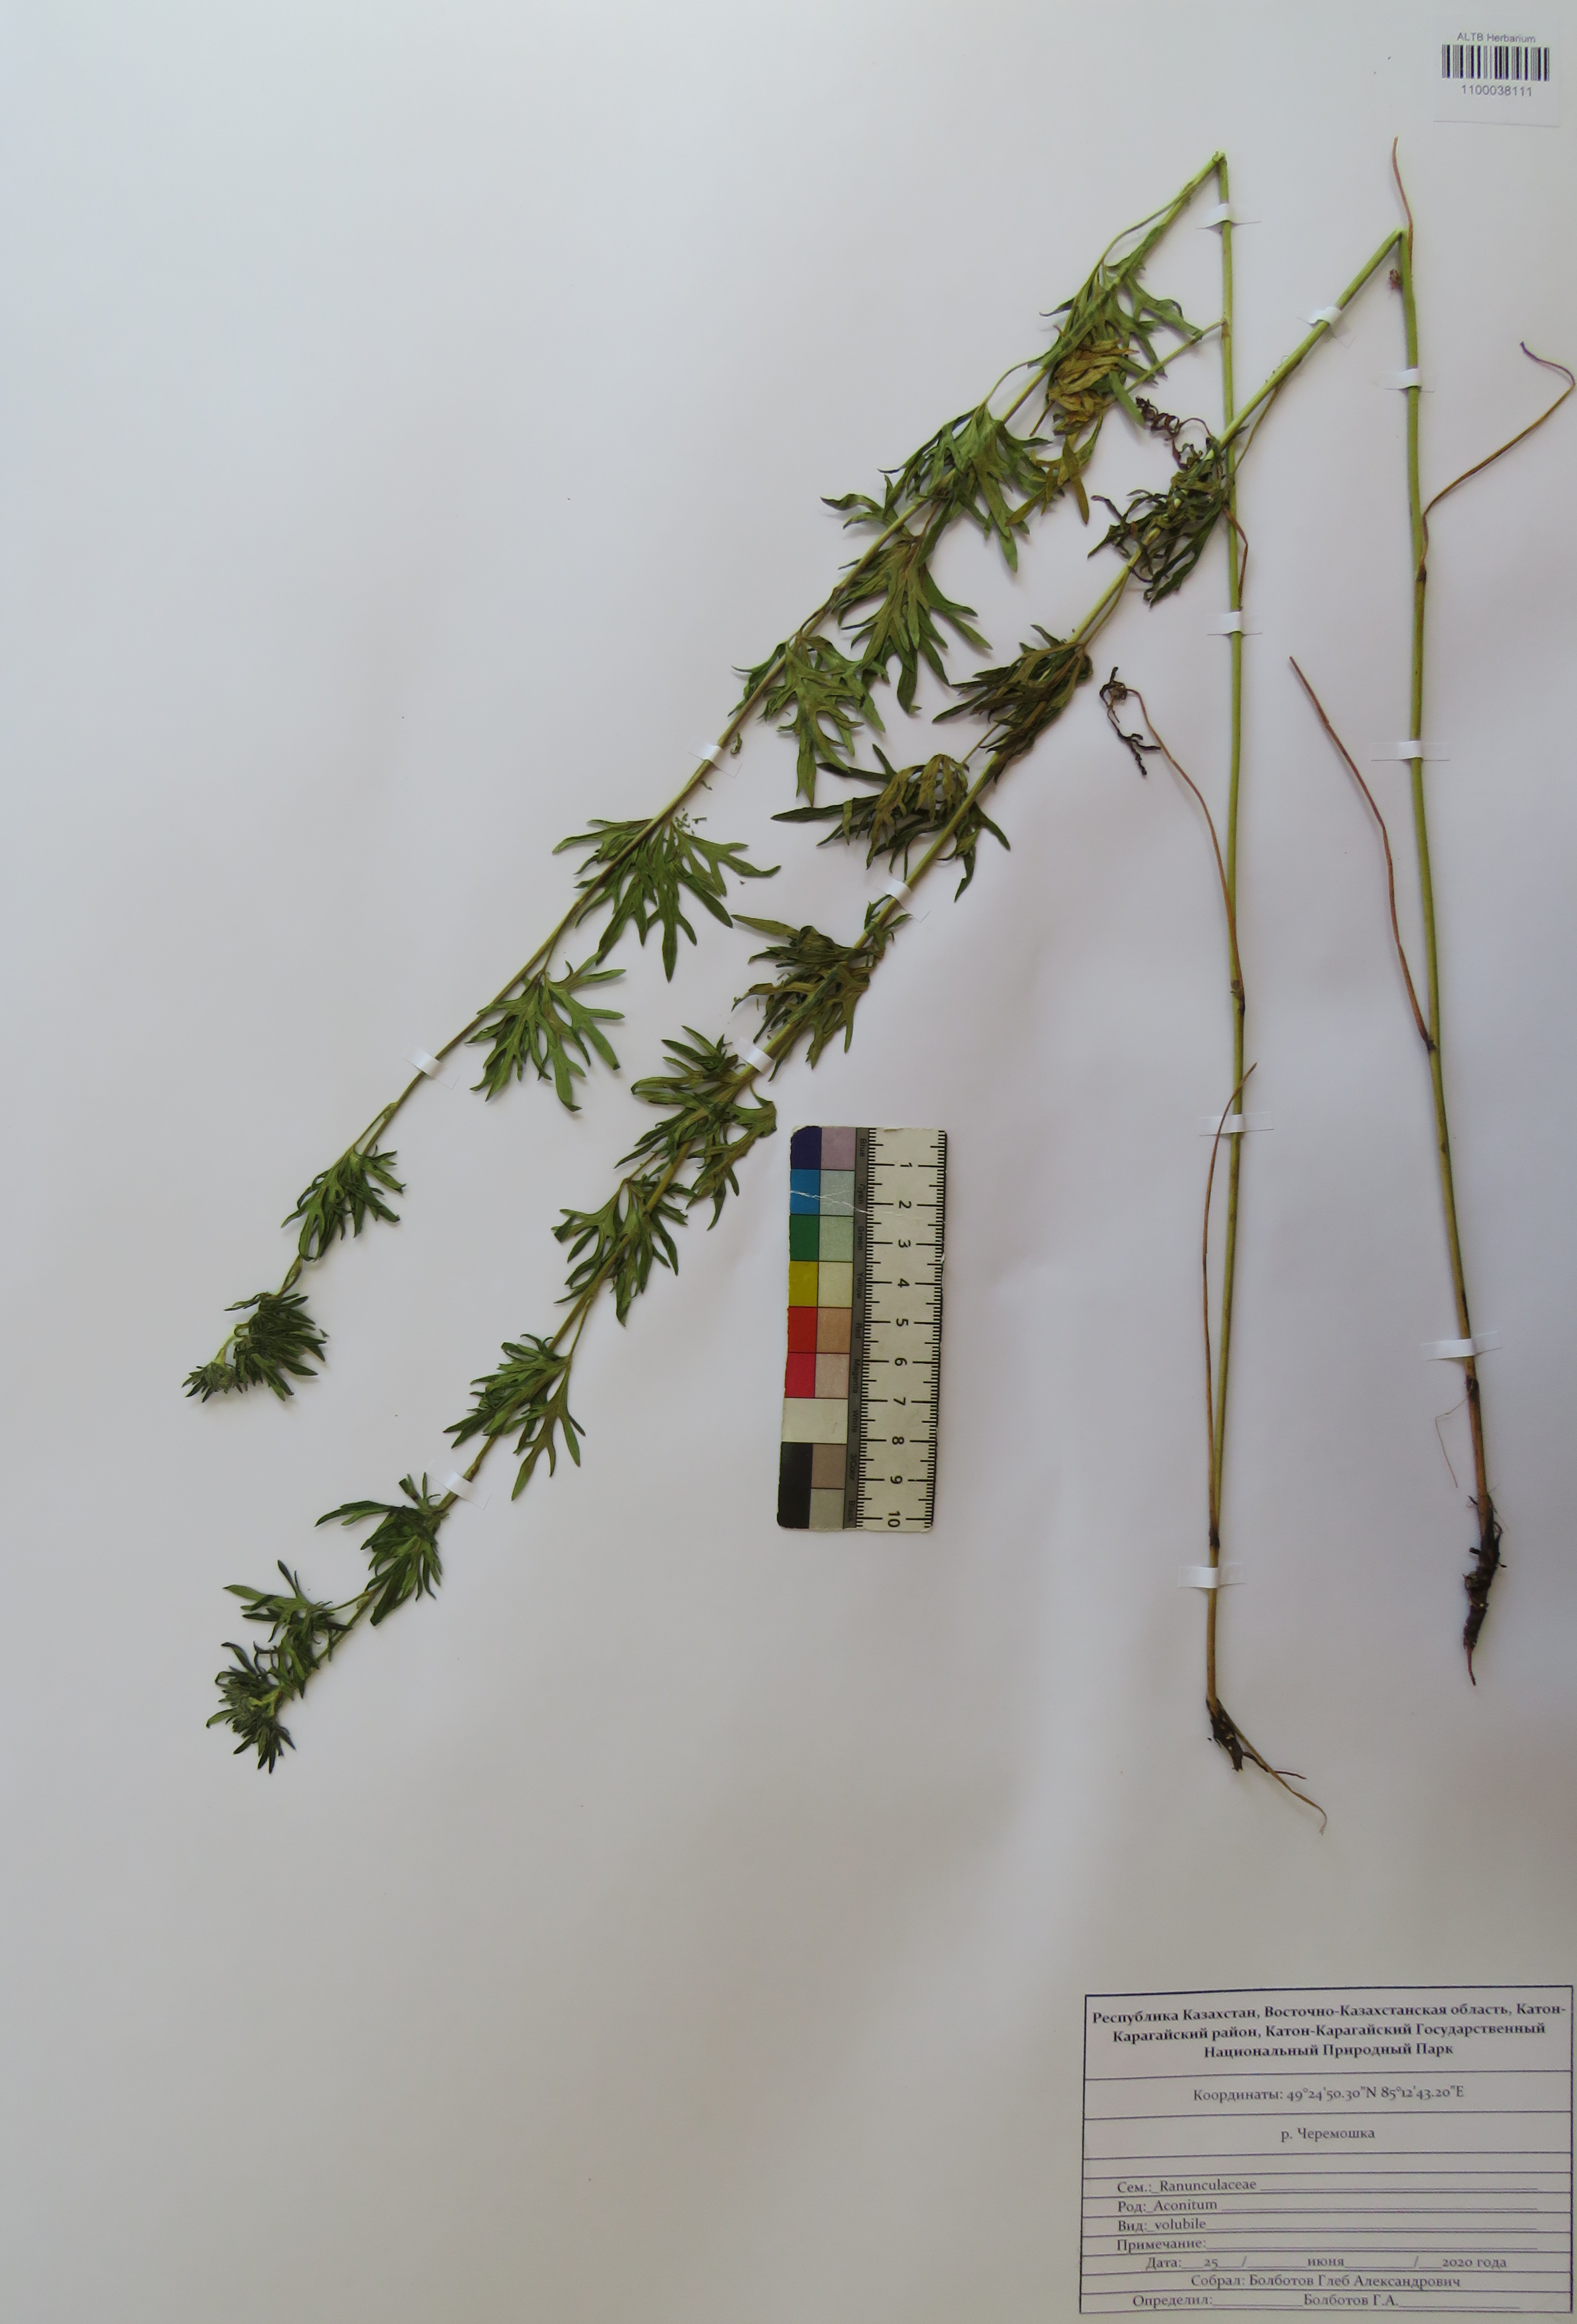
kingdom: Plantae
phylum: Tracheophyta
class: Magnoliopsida
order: Ranunculales
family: Ranunculaceae
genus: Aconitum
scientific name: Aconitum volubile
